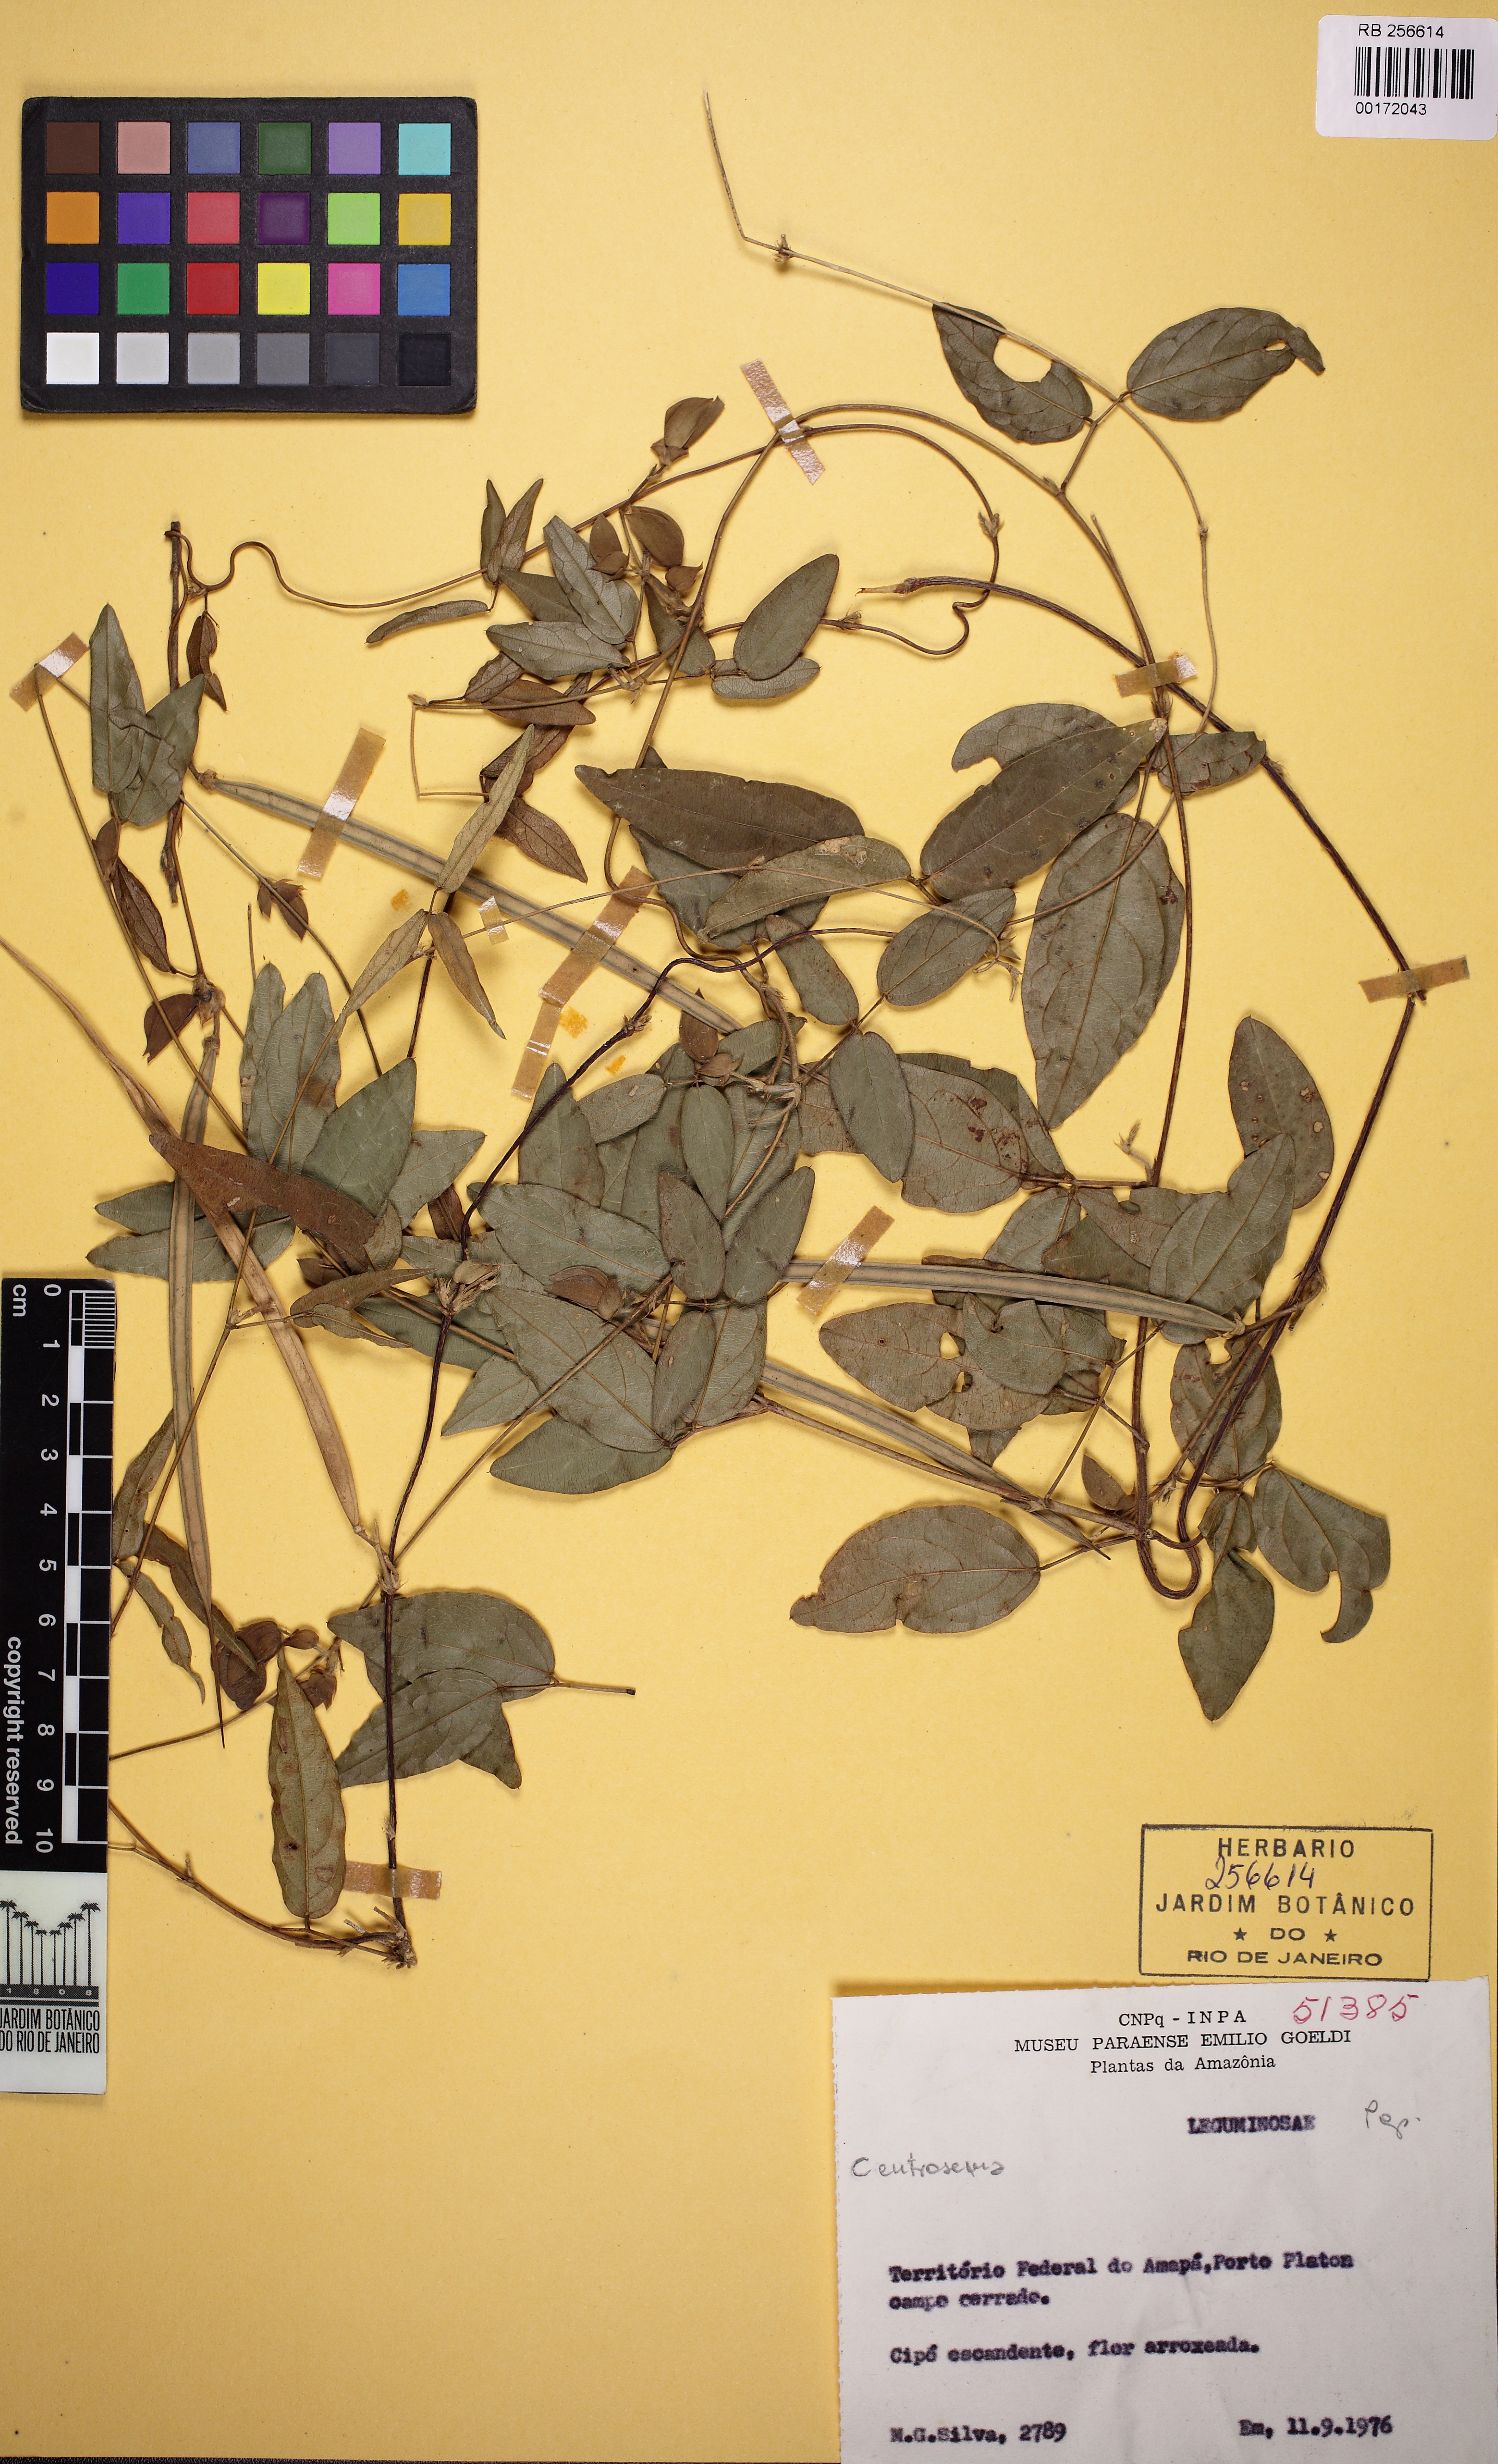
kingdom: Plantae
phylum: Tracheophyta
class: Magnoliopsida
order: Fabales
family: Fabaceae
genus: Centrosema
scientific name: Centrosema brasilianum
